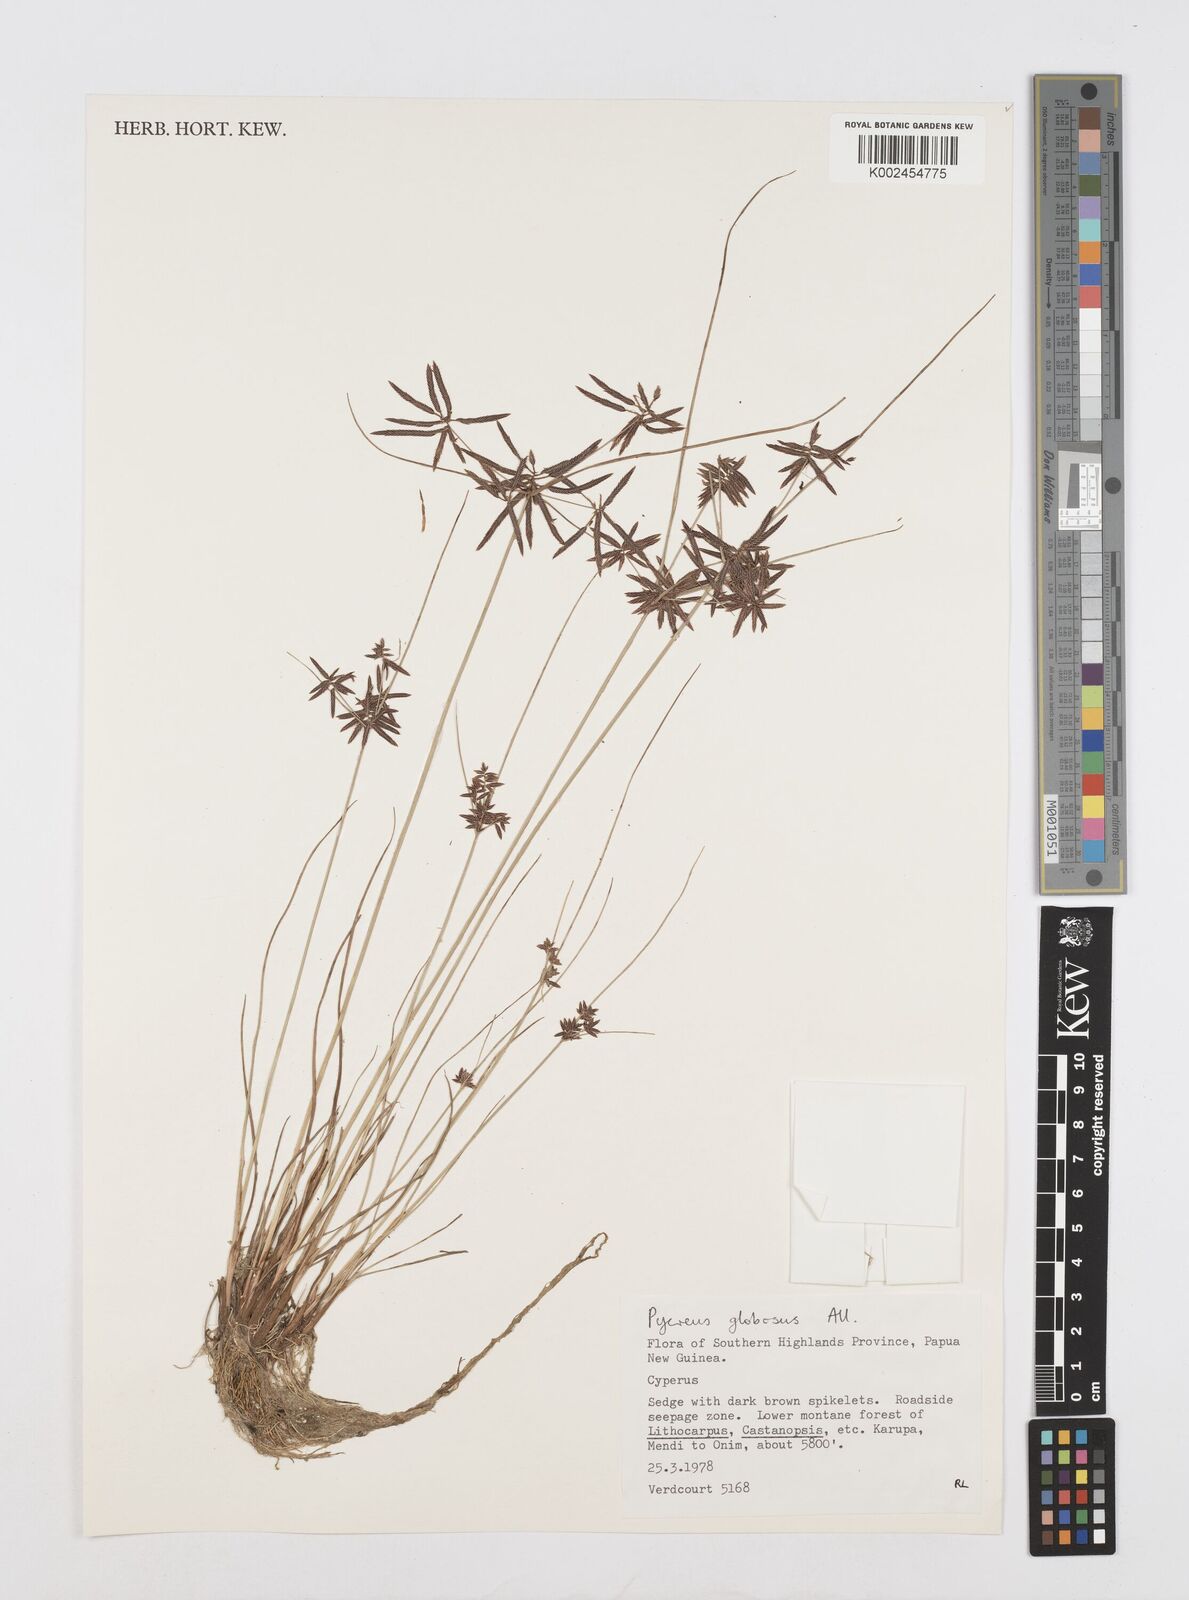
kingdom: Plantae
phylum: Tracheophyta
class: Liliopsida
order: Poales
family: Cyperaceae
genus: Cyperus
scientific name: Cyperus flavidus
